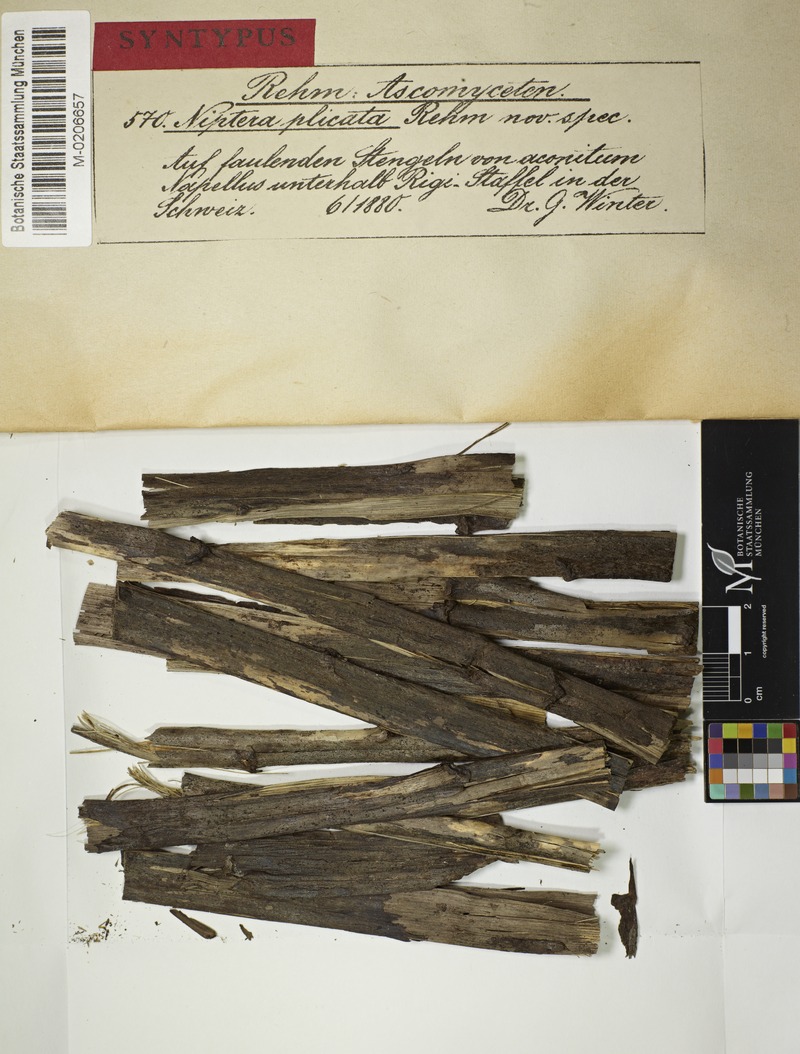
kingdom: Fungi
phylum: Ascomycota
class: Leotiomycetes
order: Helotiales
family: Ploettnerulaceae
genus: Pyrenopeziza
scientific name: Pyrenopeziza plicata
